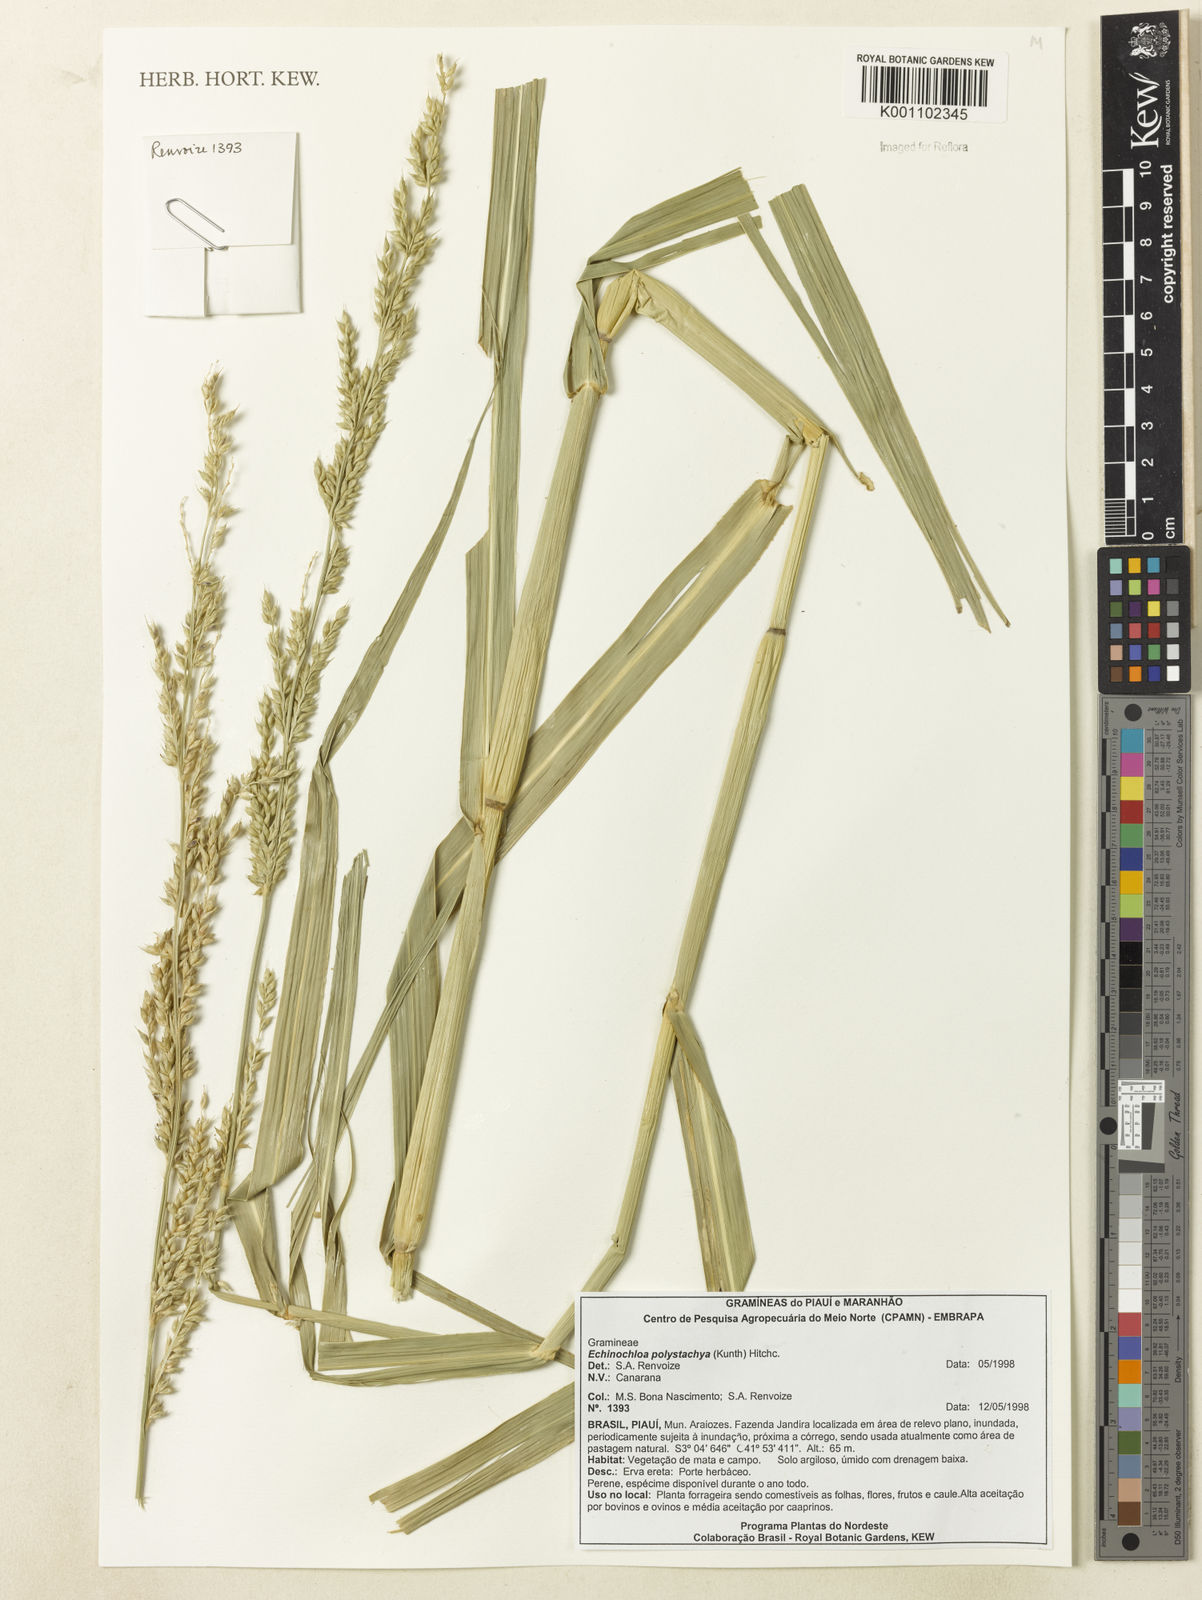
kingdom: Plantae
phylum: Tracheophyta
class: Liliopsida
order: Poales
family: Poaceae
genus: Echinochloa
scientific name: Echinochloa polystachya
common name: Creeping river grass
